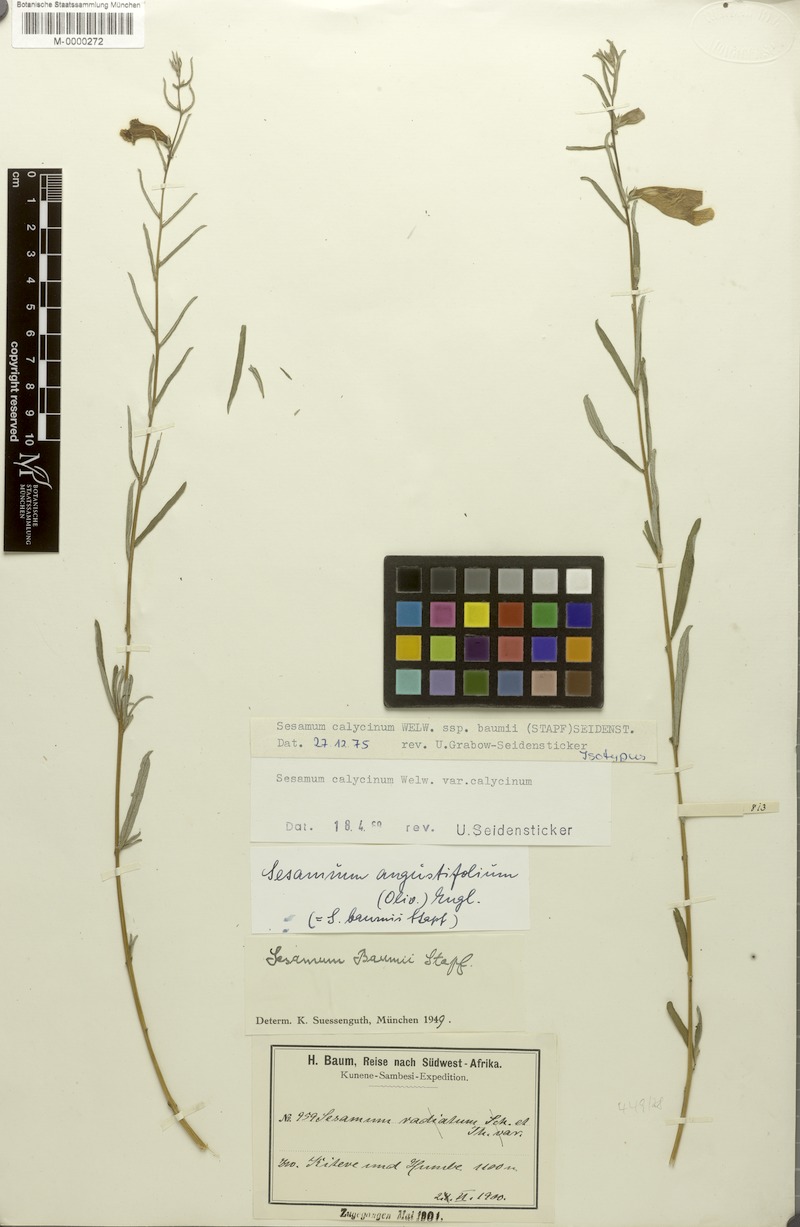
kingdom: Plantae
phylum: Tracheophyta
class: Magnoliopsida
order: Lamiales
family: Pedaliaceae
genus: Sesamum
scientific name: Sesamum calycinum
